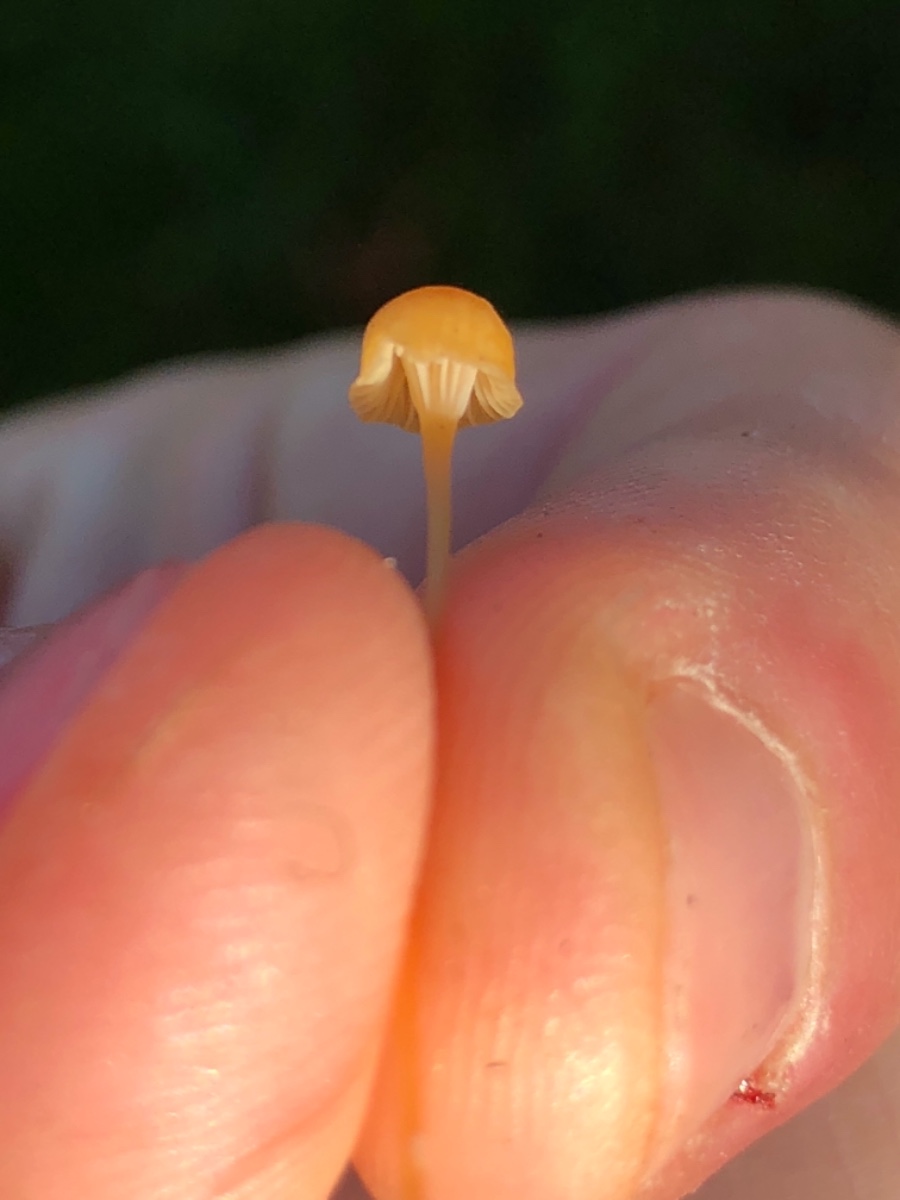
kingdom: Fungi
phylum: Basidiomycota
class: Agaricomycetes
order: Hymenochaetales
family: Rickenellaceae
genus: Rickenella
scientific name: Rickenella fibula
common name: orange mosnavlehat
